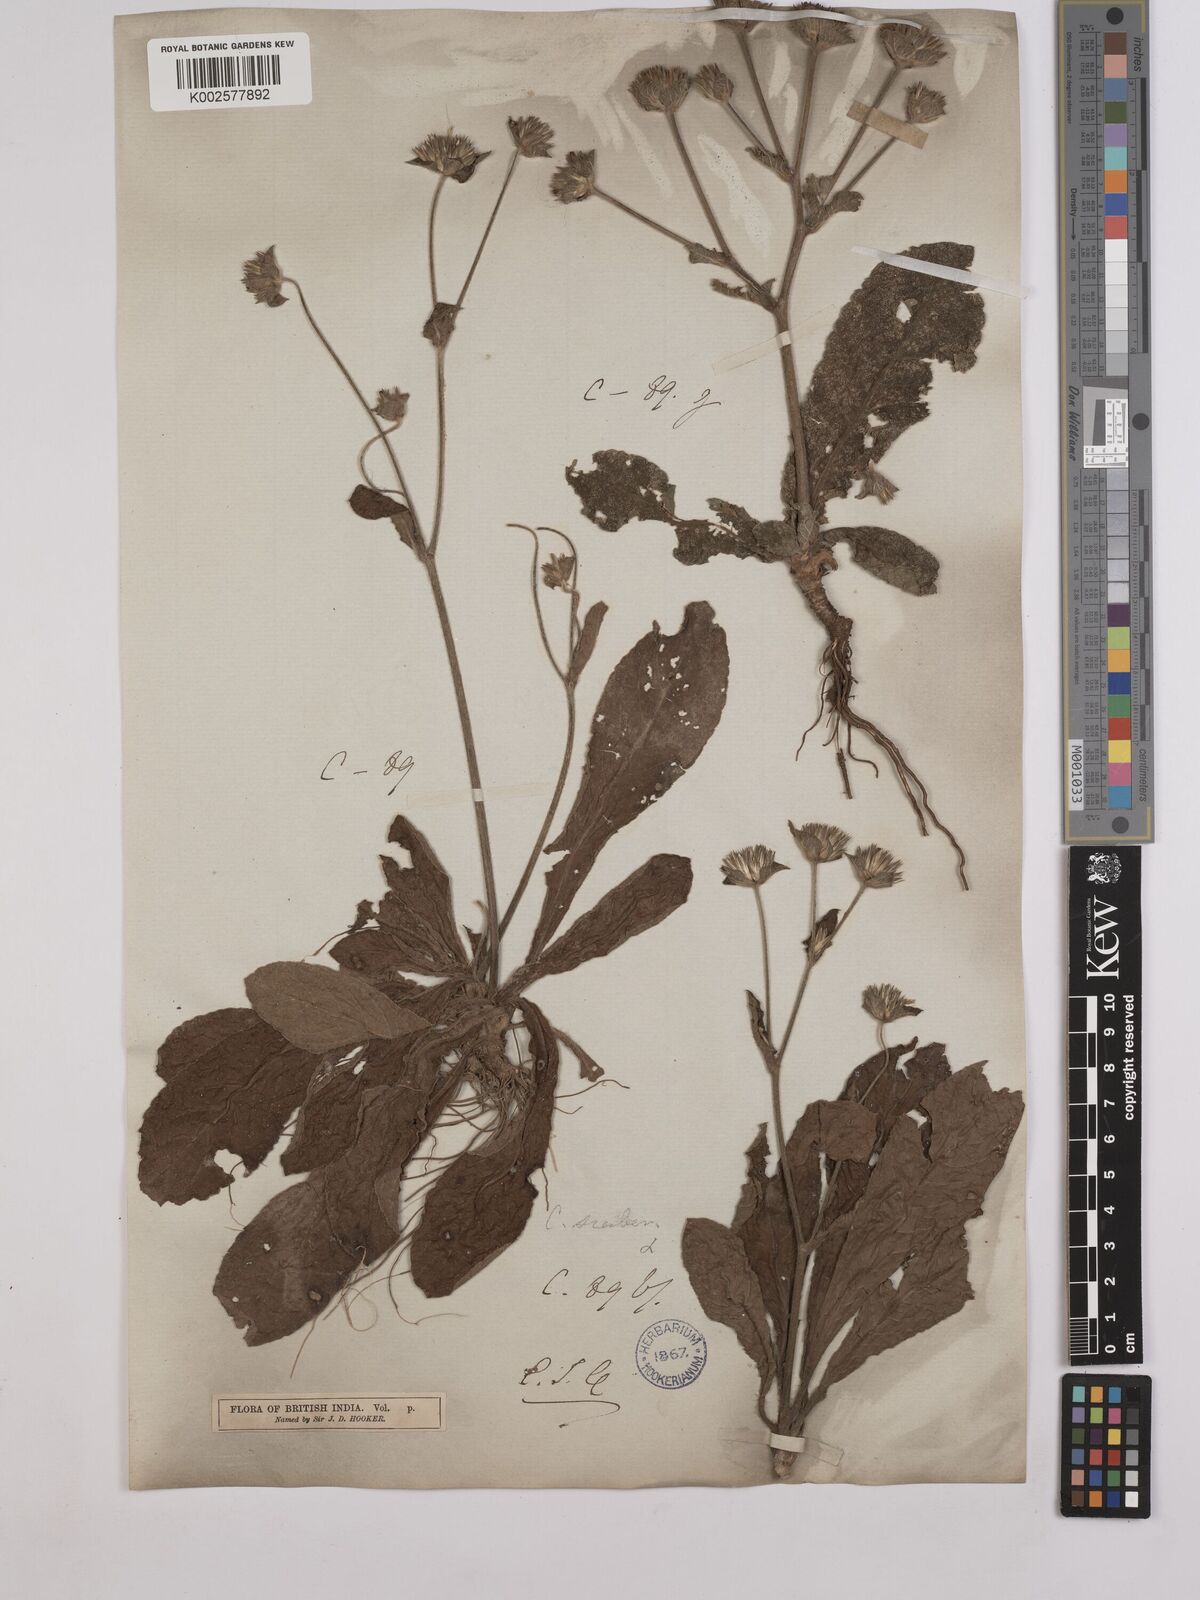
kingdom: Plantae
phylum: Tracheophyta
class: Magnoliopsida
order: Asterales
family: Asteraceae
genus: Elephantopus
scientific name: Elephantopus scaber
